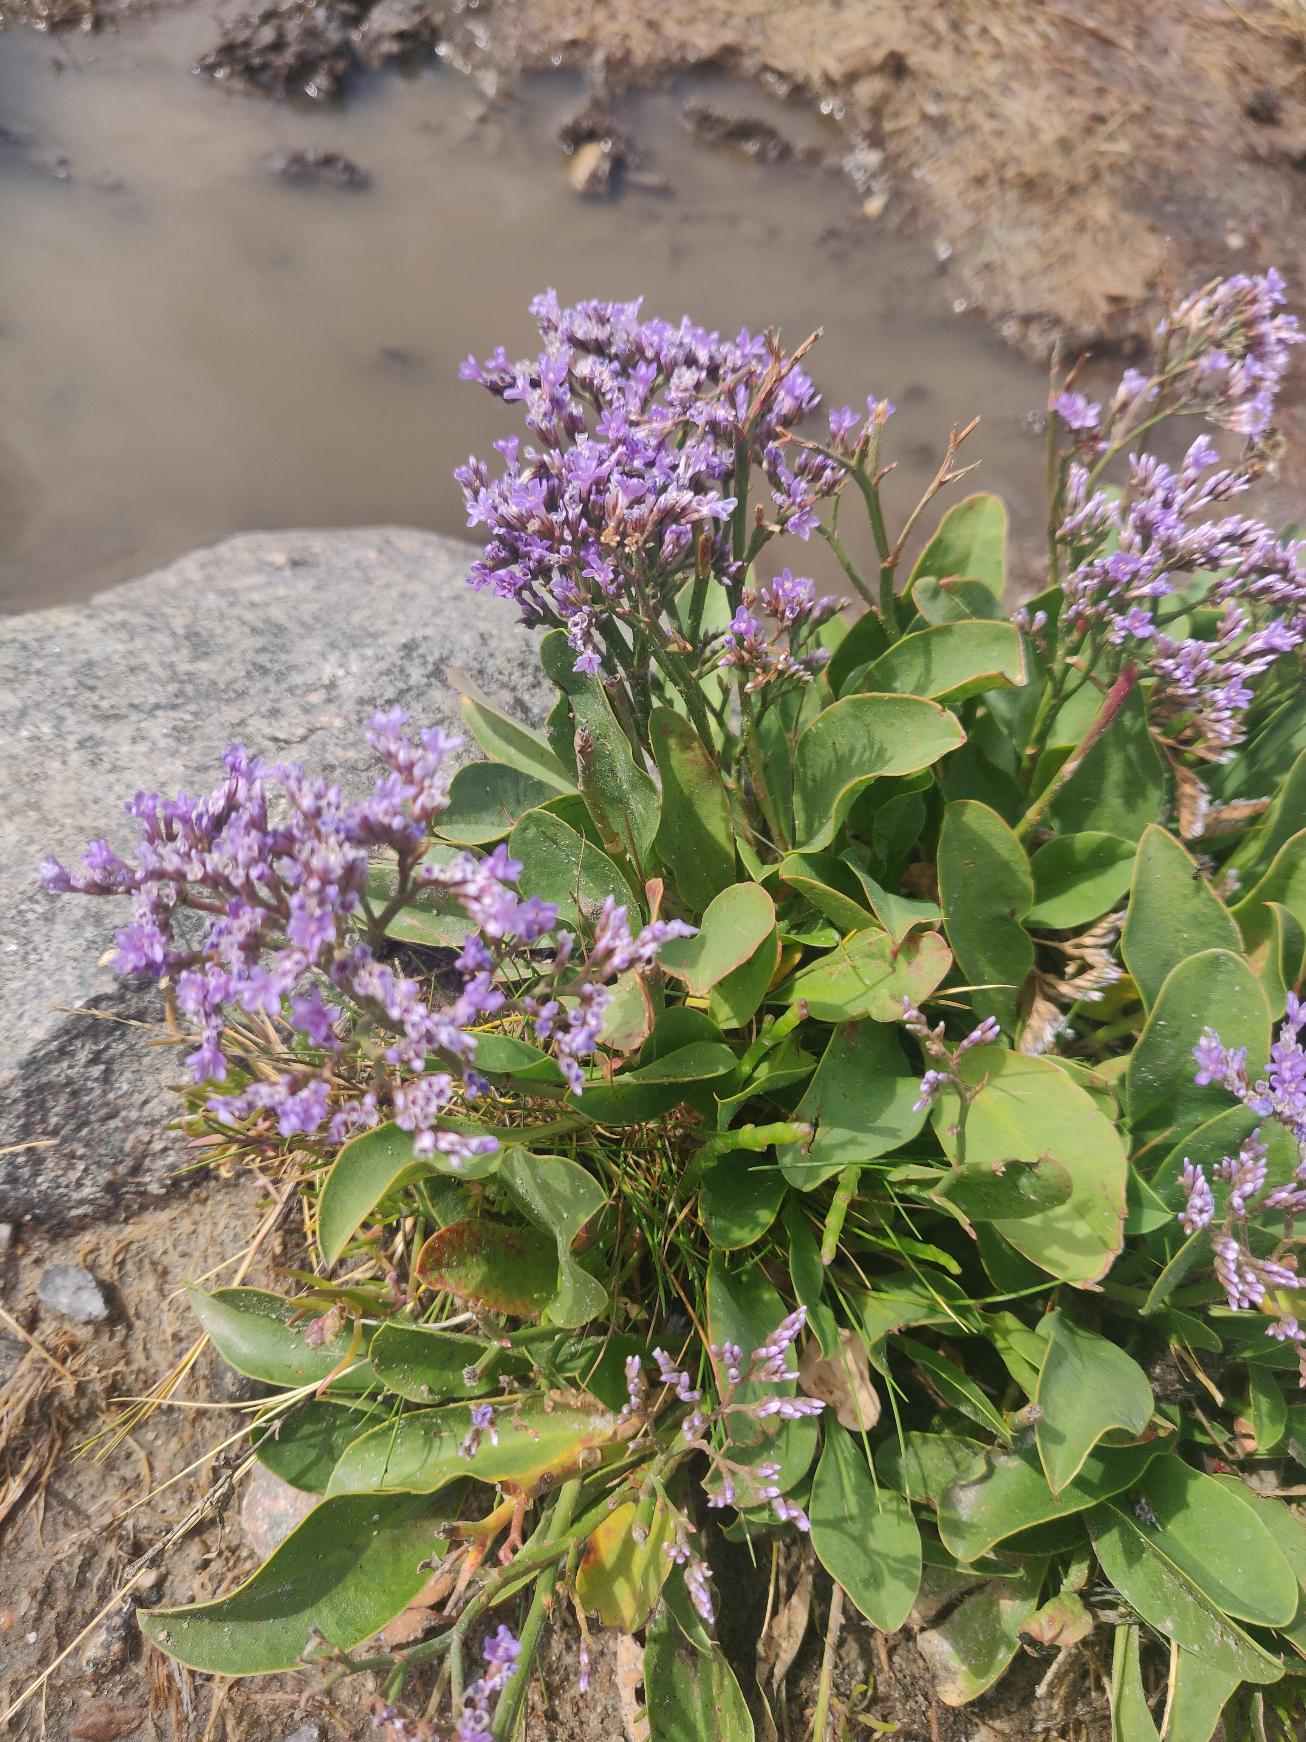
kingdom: Plantae
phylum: Tracheophyta
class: Magnoliopsida
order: Caryophyllales
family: Plumbaginaceae
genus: Limonium
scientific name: Limonium vulgare
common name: Tætblomstret hindebæger
